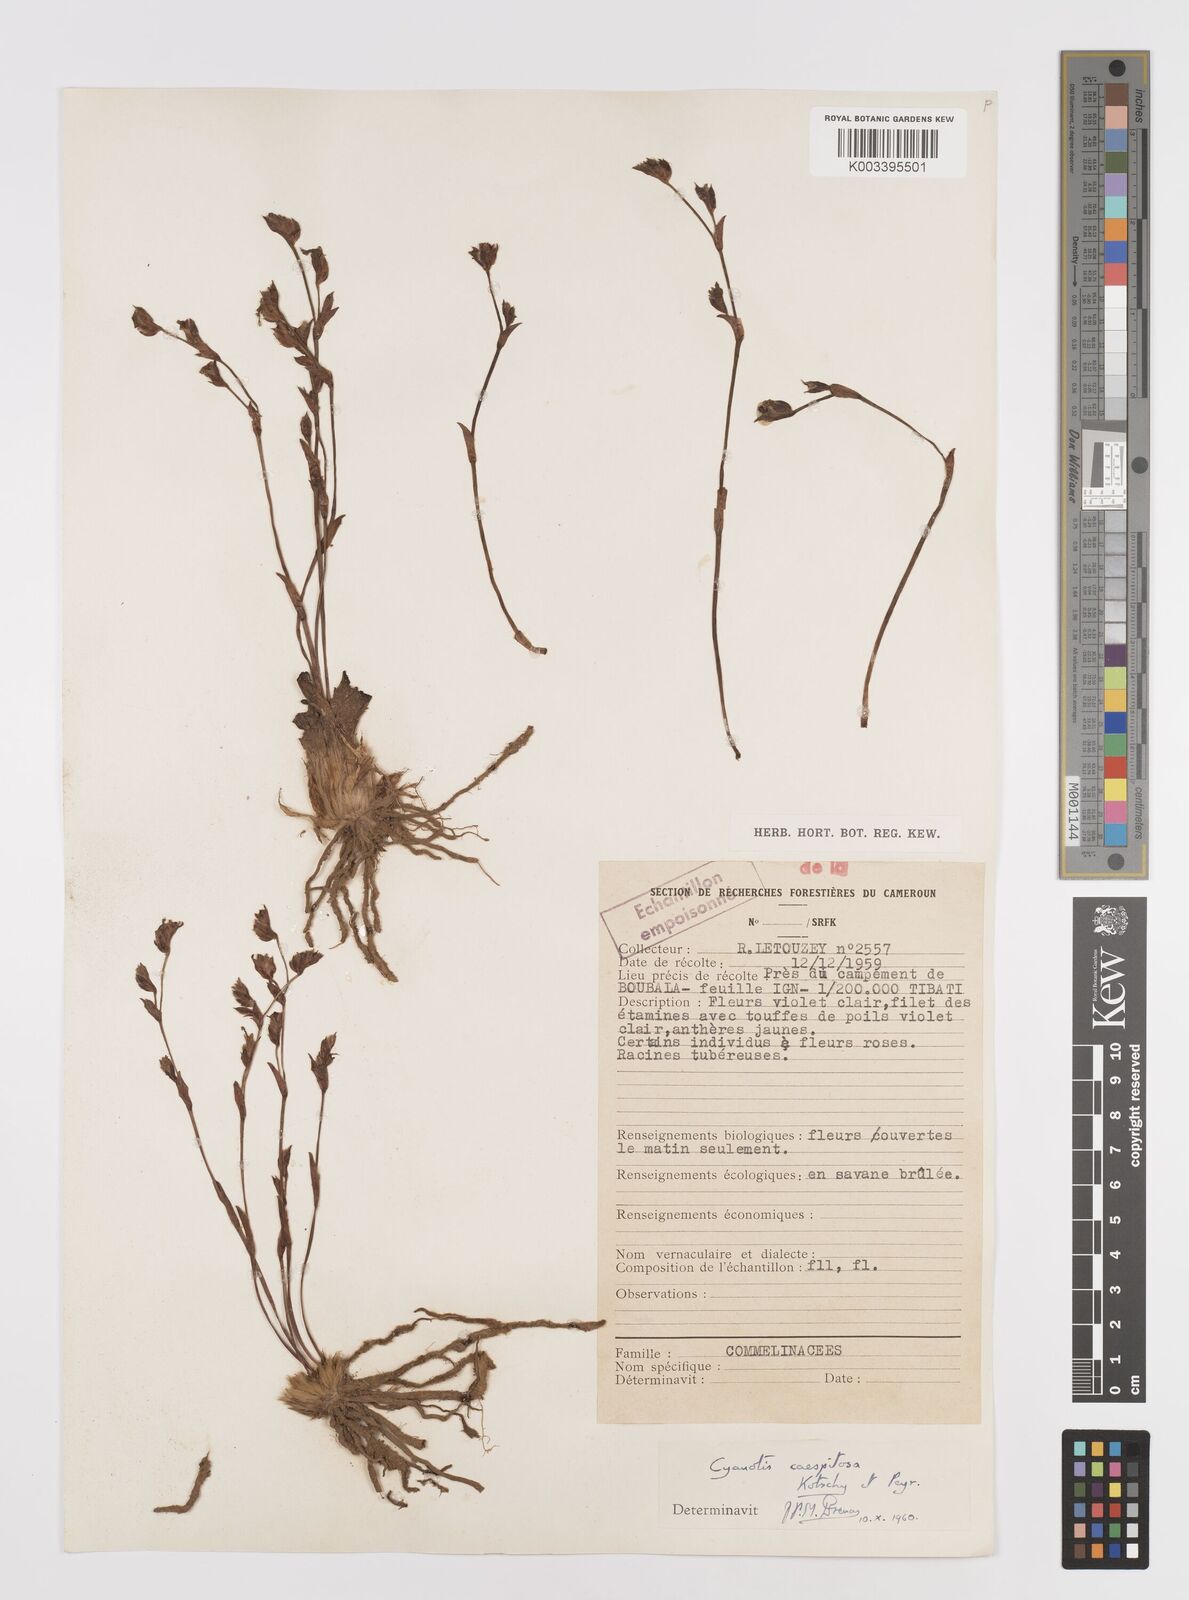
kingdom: Plantae
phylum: Tracheophyta
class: Liliopsida
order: Commelinales
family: Commelinaceae
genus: Cyanotis
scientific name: Cyanotis caespitosa
